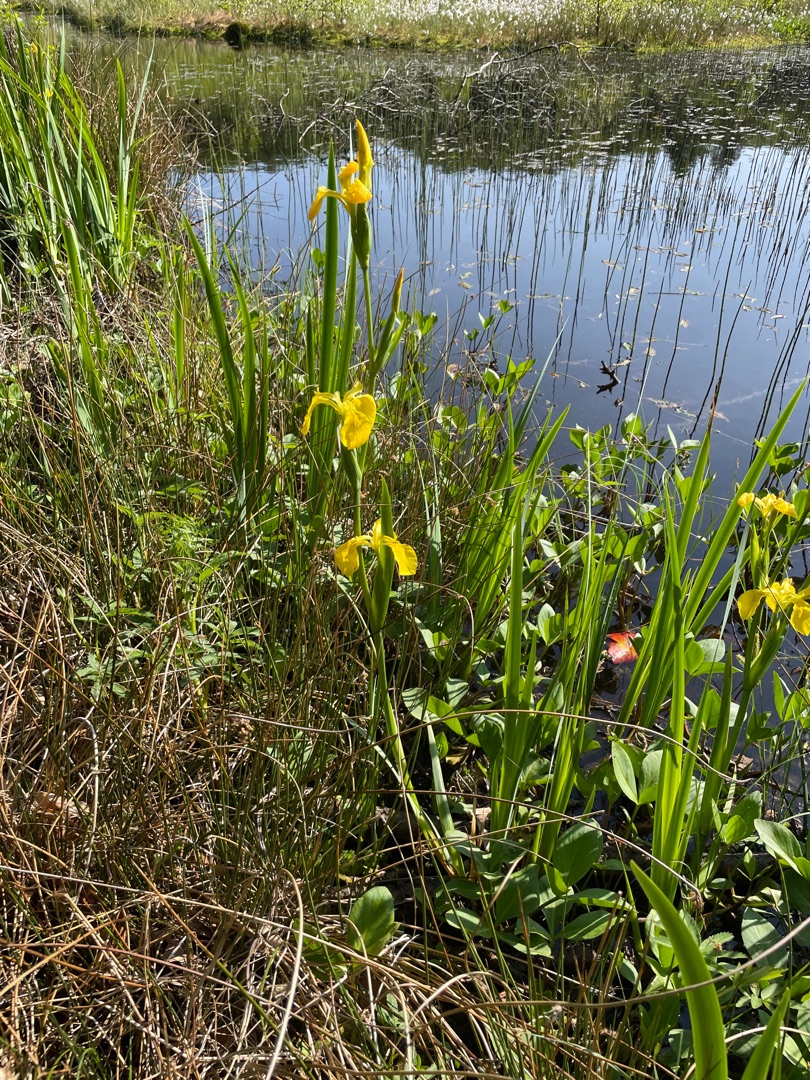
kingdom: Plantae
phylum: Tracheophyta
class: Liliopsida
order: Asparagales
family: Iridaceae
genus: Iris
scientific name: Iris pseudacorus
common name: Gul iris
